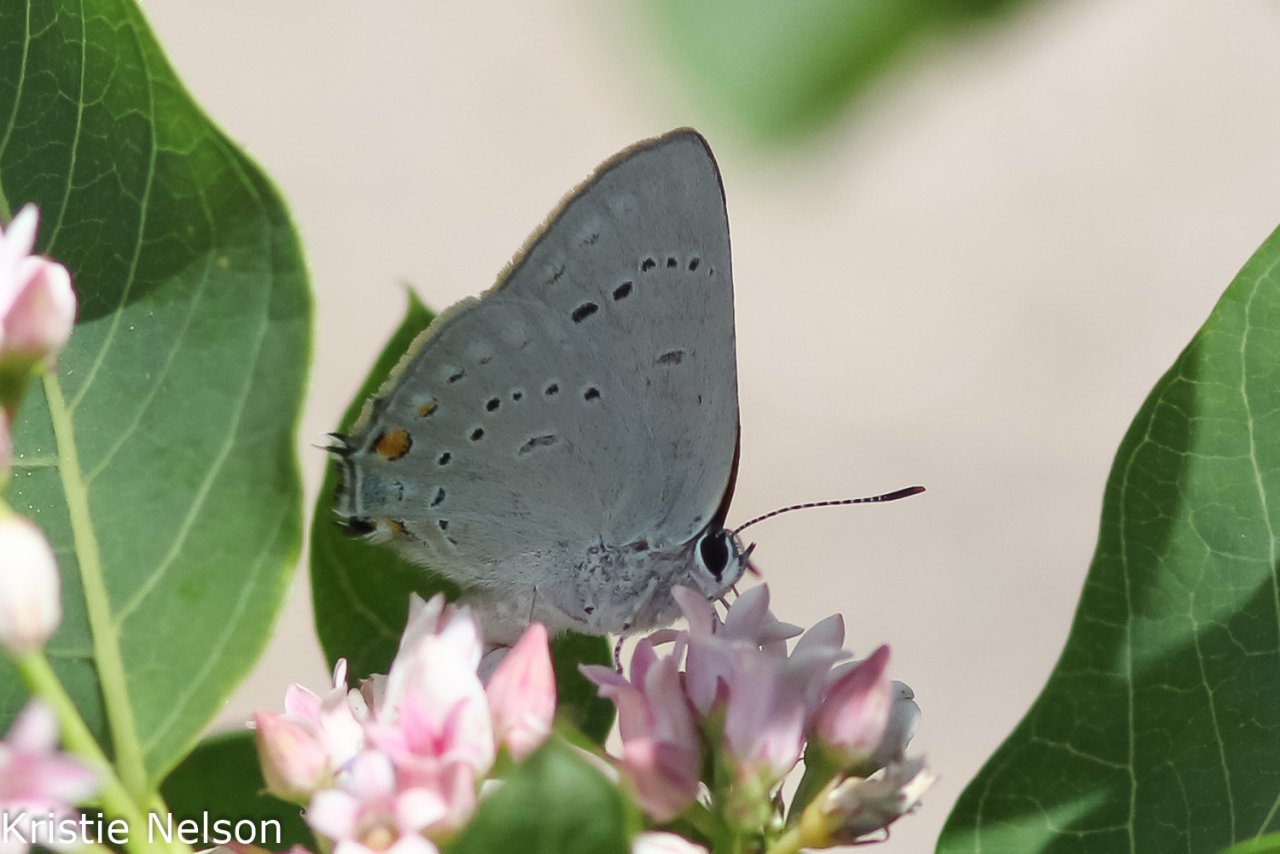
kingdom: Animalia
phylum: Arthropoda
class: Insecta
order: Lepidoptera
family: Lycaenidae
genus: Strymon
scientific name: Strymon sylvinus
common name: Sylvan Hairstreak
